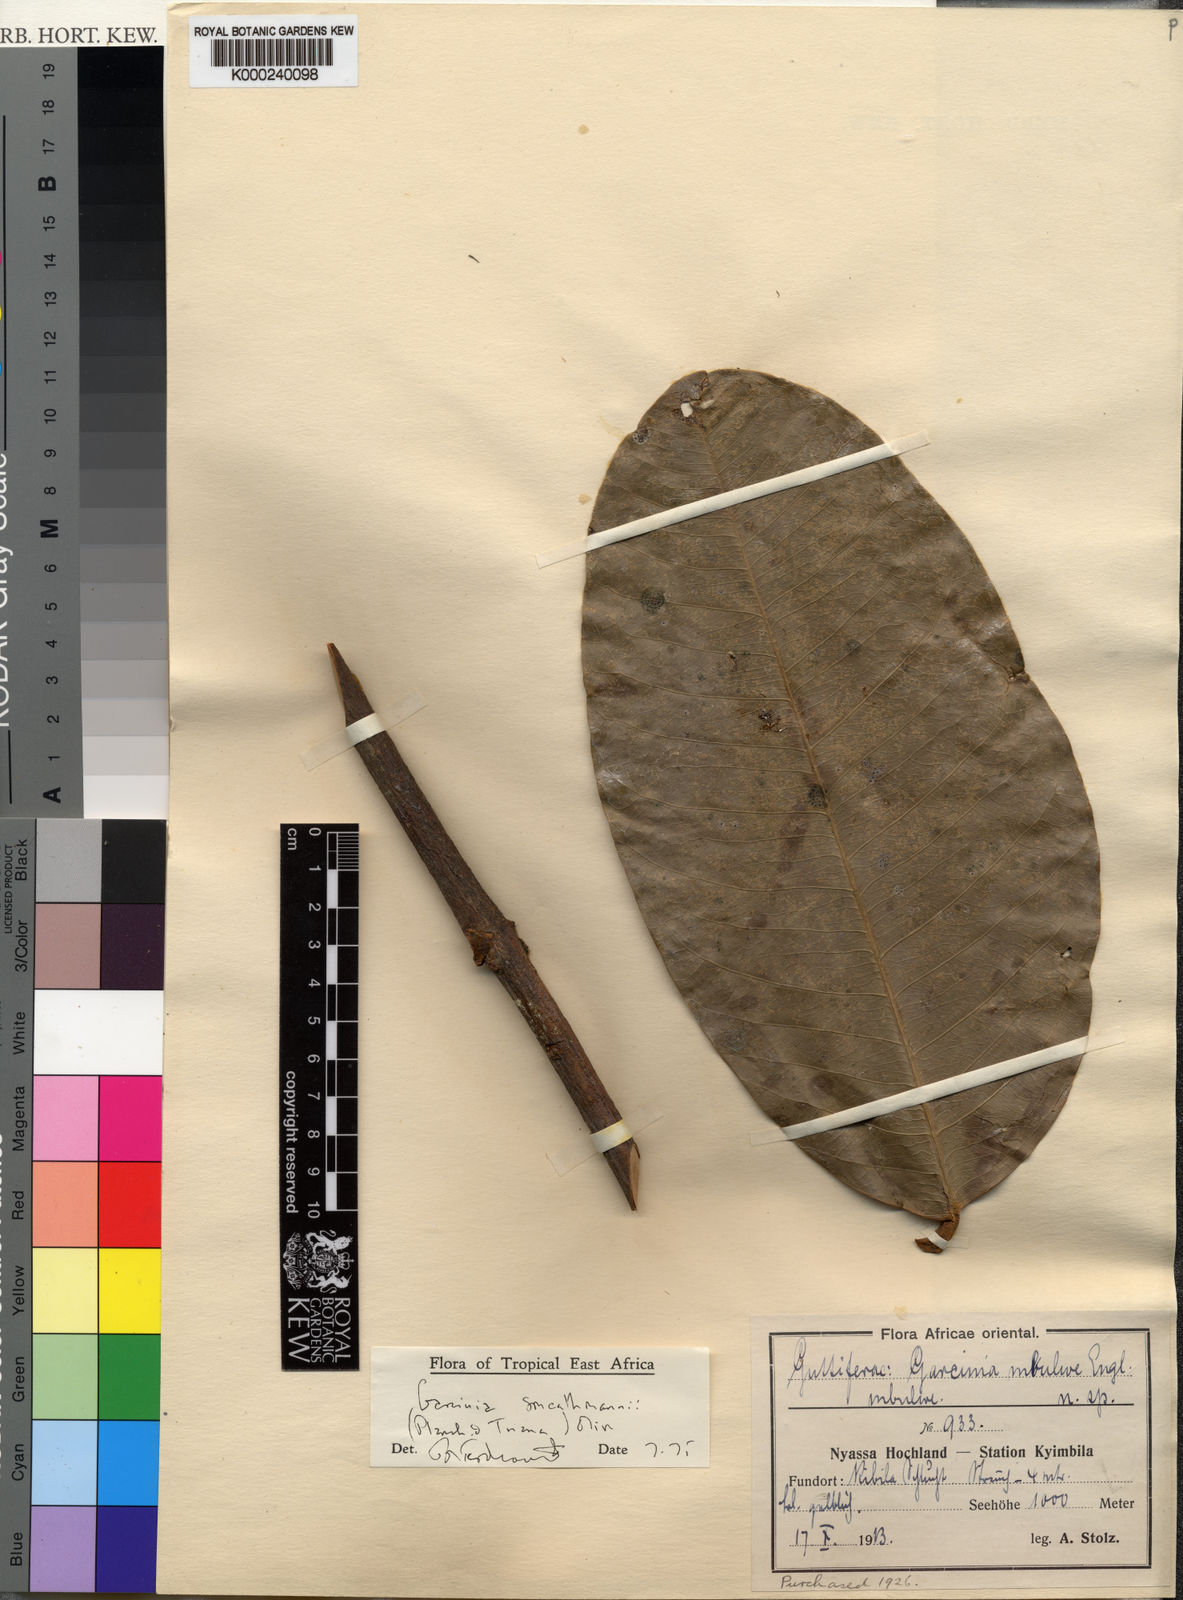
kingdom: Plantae
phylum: Tracheophyta
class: Magnoliopsida
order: Malpighiales
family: Clusiaceae
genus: Garcinia
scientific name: Garcinia smeathmannii
